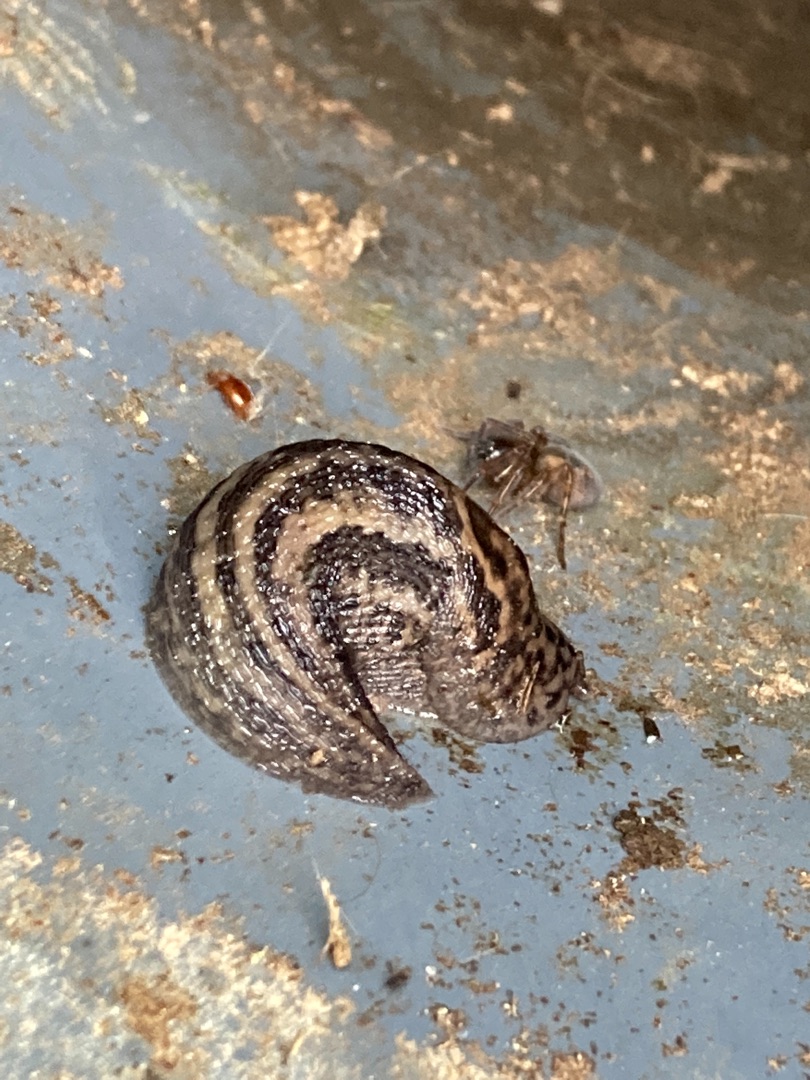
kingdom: Animalia
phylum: Mollusca
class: Gastropoda
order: Stylommatophora
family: Limacidae
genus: Limax
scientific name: Limax maximus
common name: Pantersnegl
